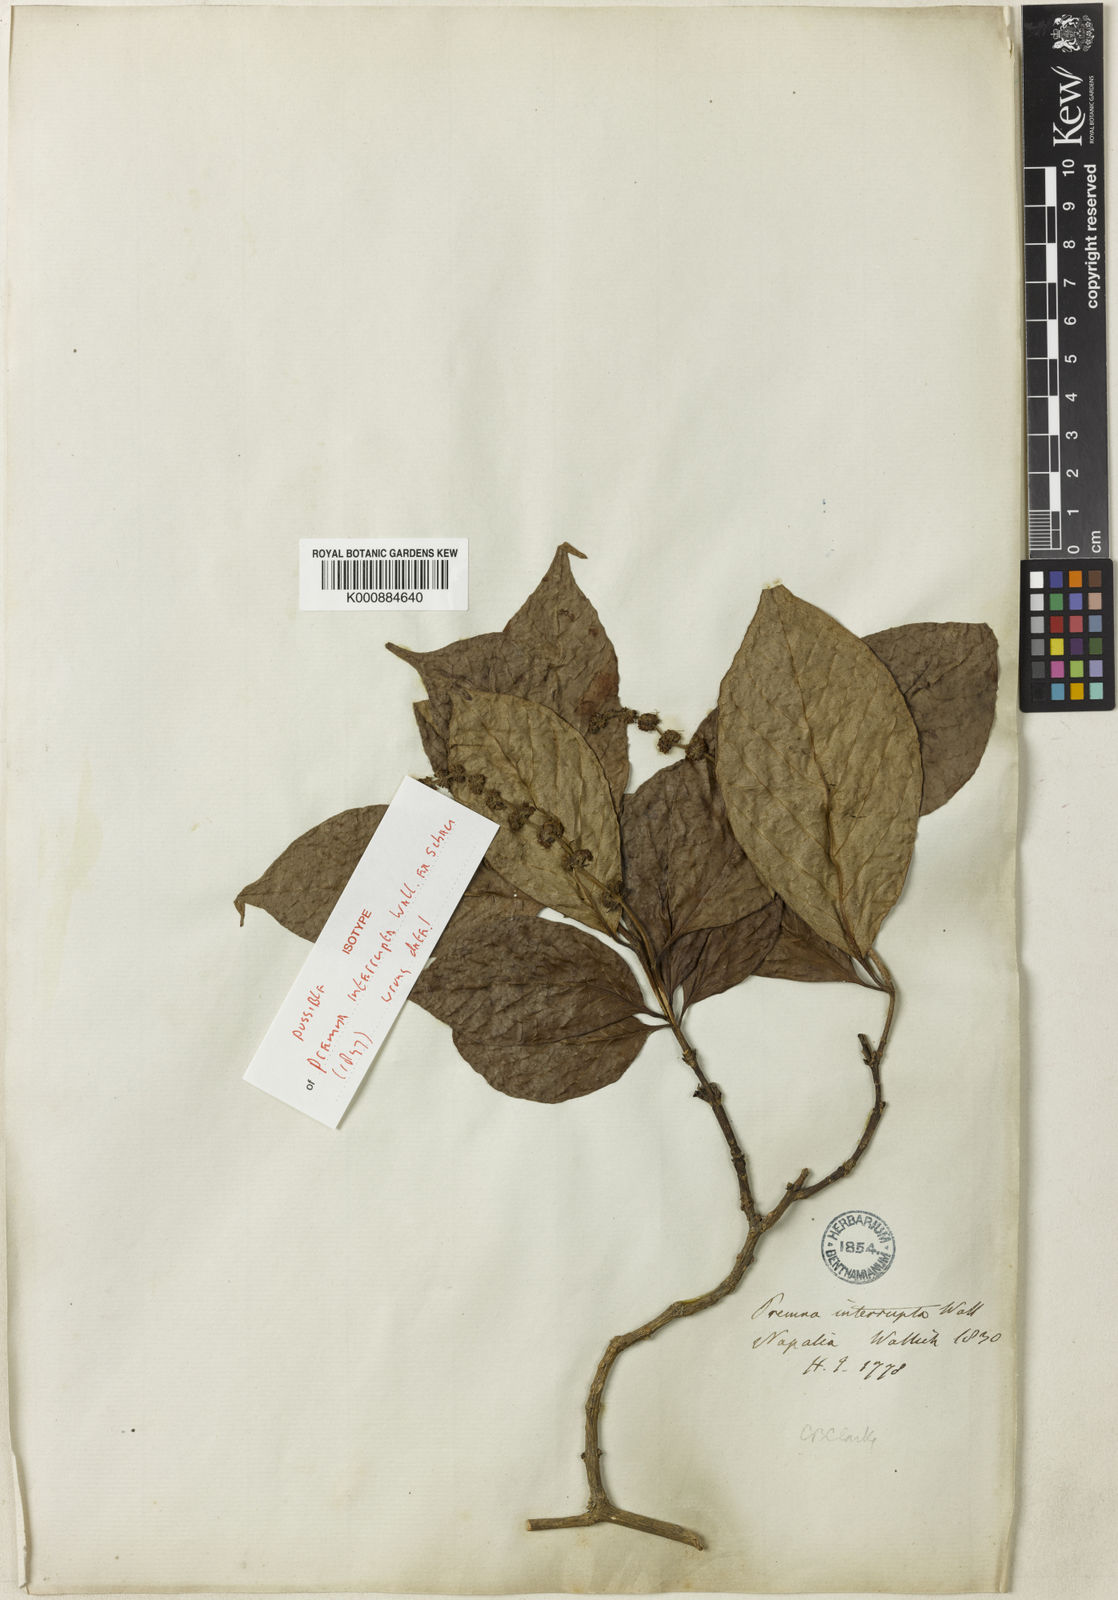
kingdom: Plantae
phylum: Tracheophyta
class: Magnoliopsida
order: Lamiales
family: Lamiaceae
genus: Premna
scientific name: Premna
